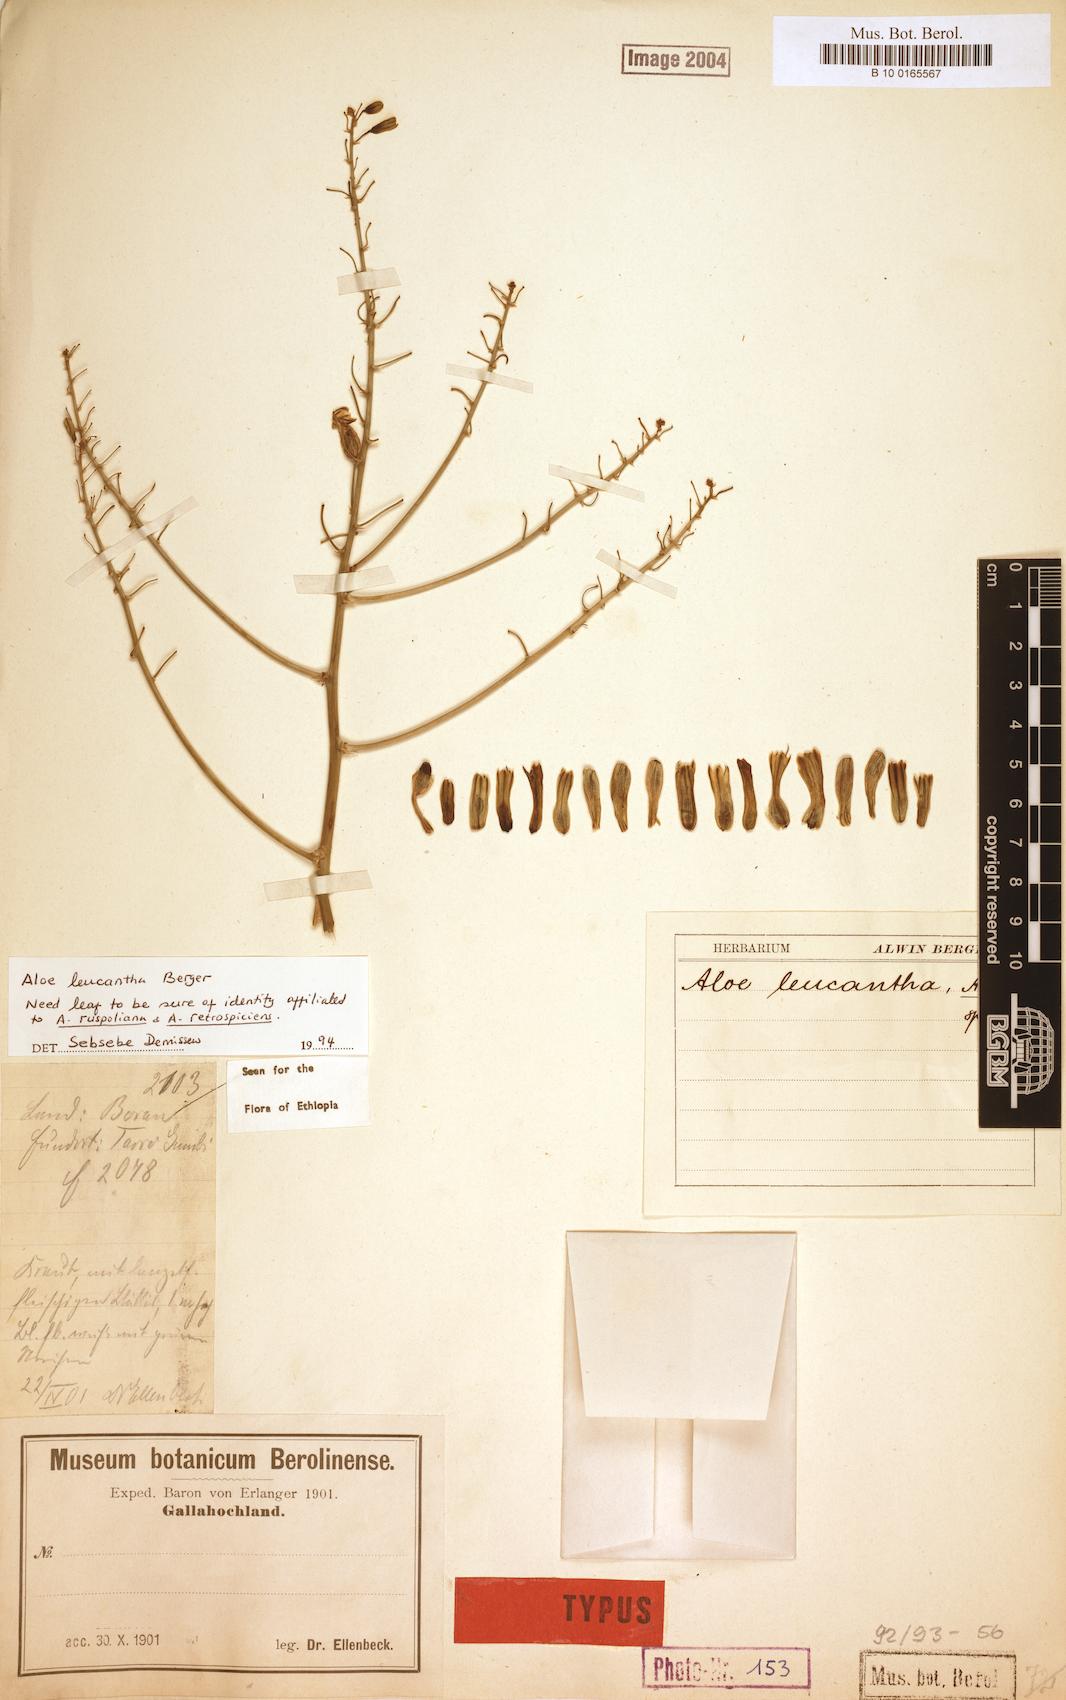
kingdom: Plantae
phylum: Tracheophyta
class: Liliopsida
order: Asparagales
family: Asphodelaceae
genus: Aloe
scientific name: Aloe leucantha
